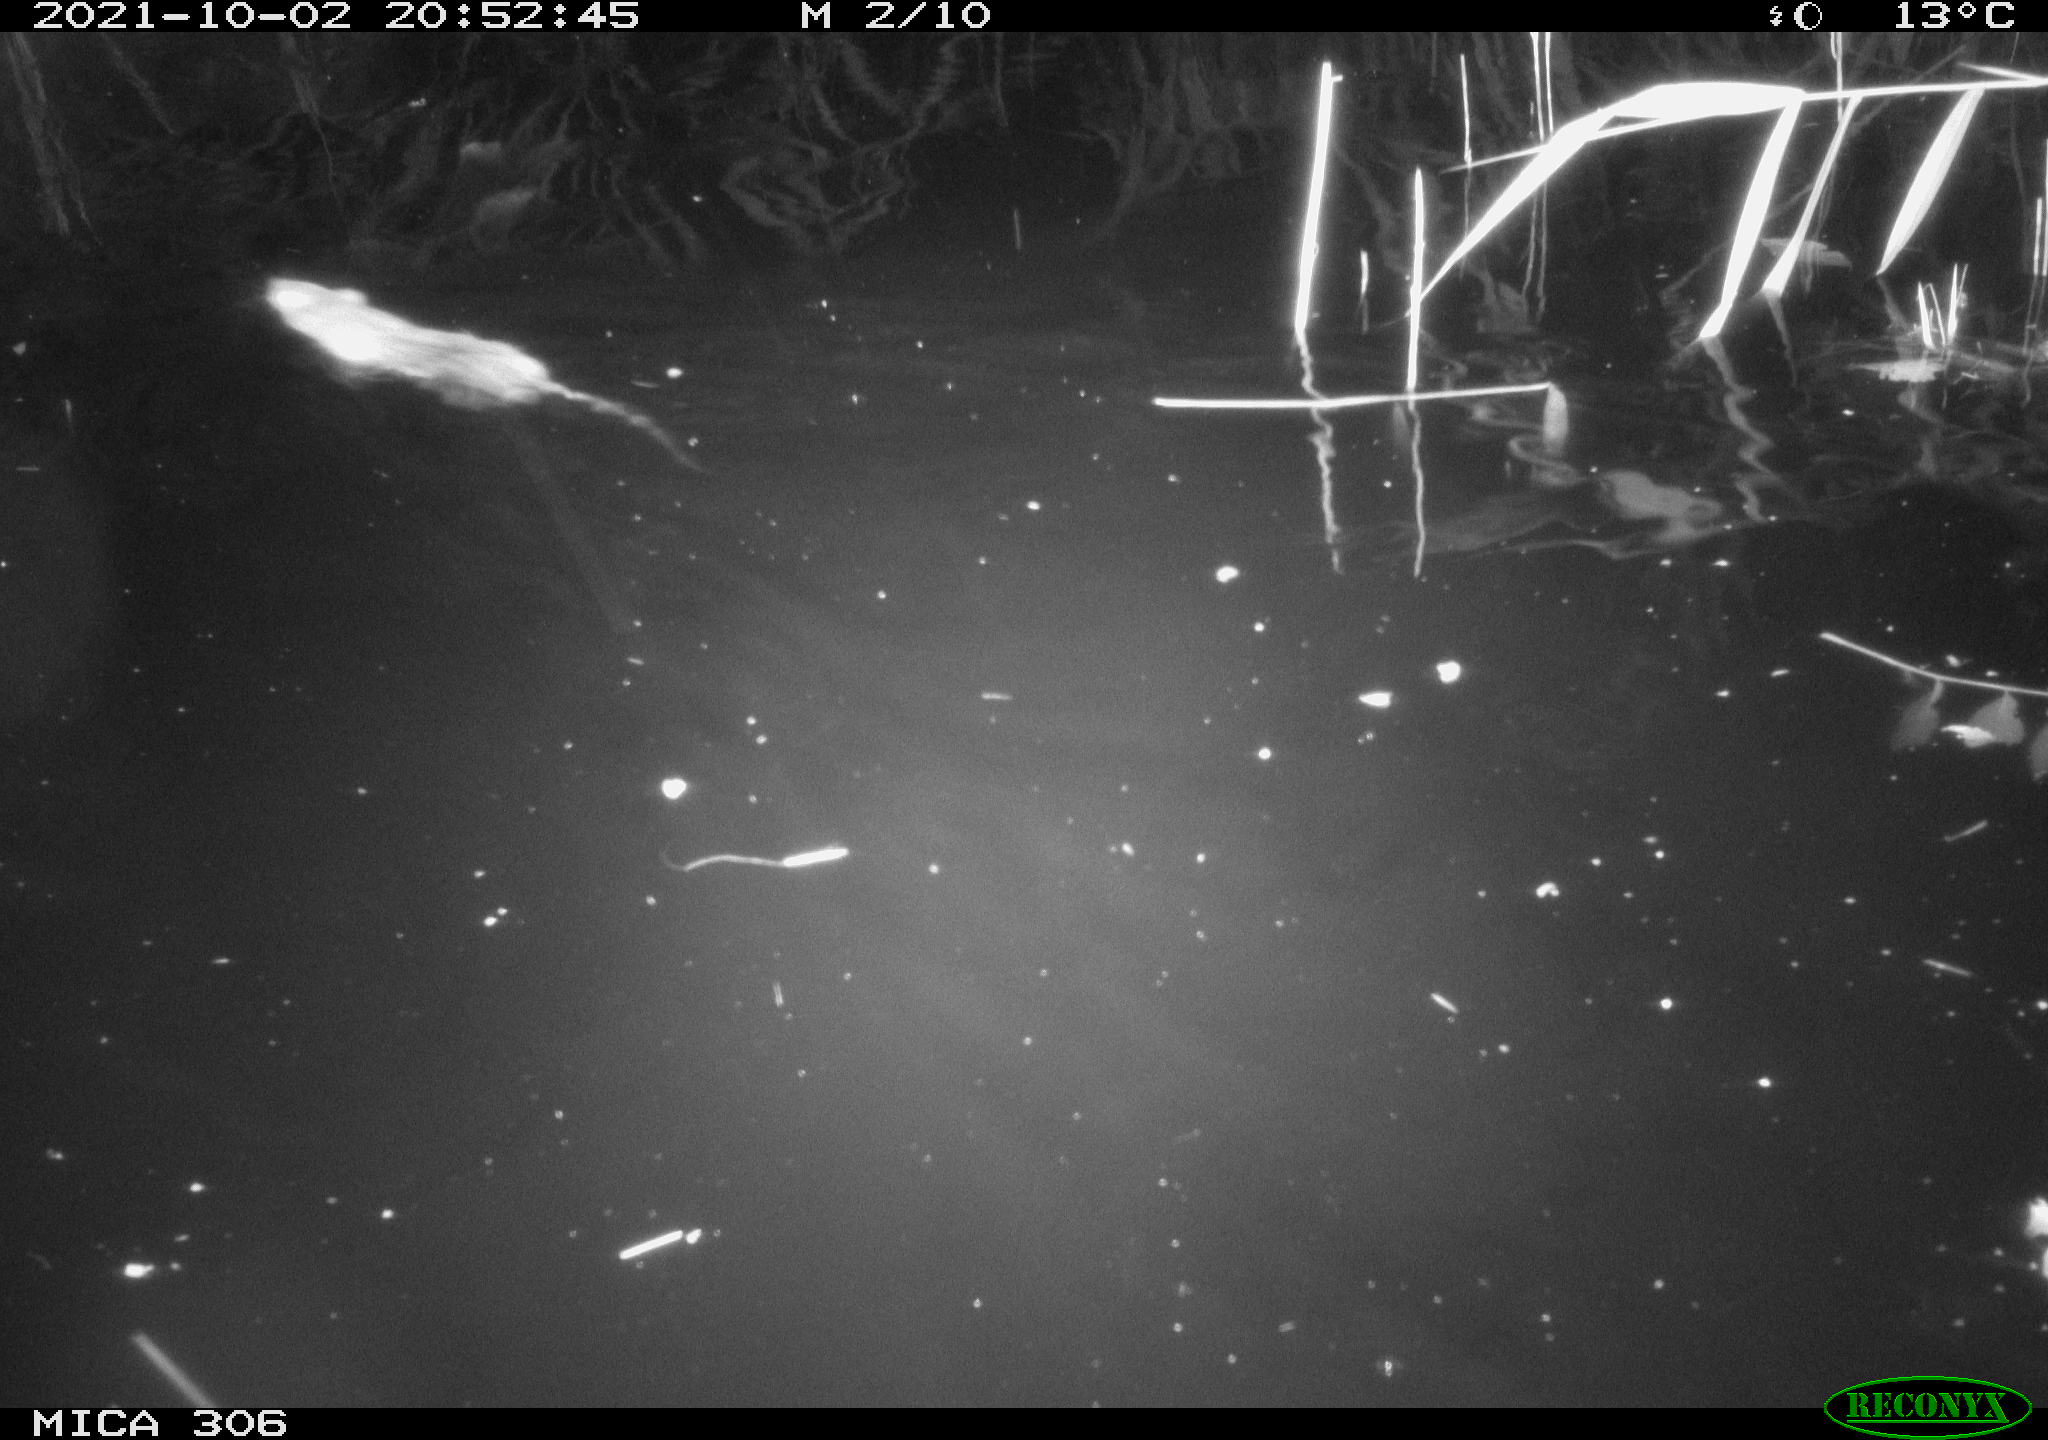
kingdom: Animalia
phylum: Chordata
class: Mammalia
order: Rodentia
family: Muridae
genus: Rattus
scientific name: Rattus norvegicus
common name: Brown rat
